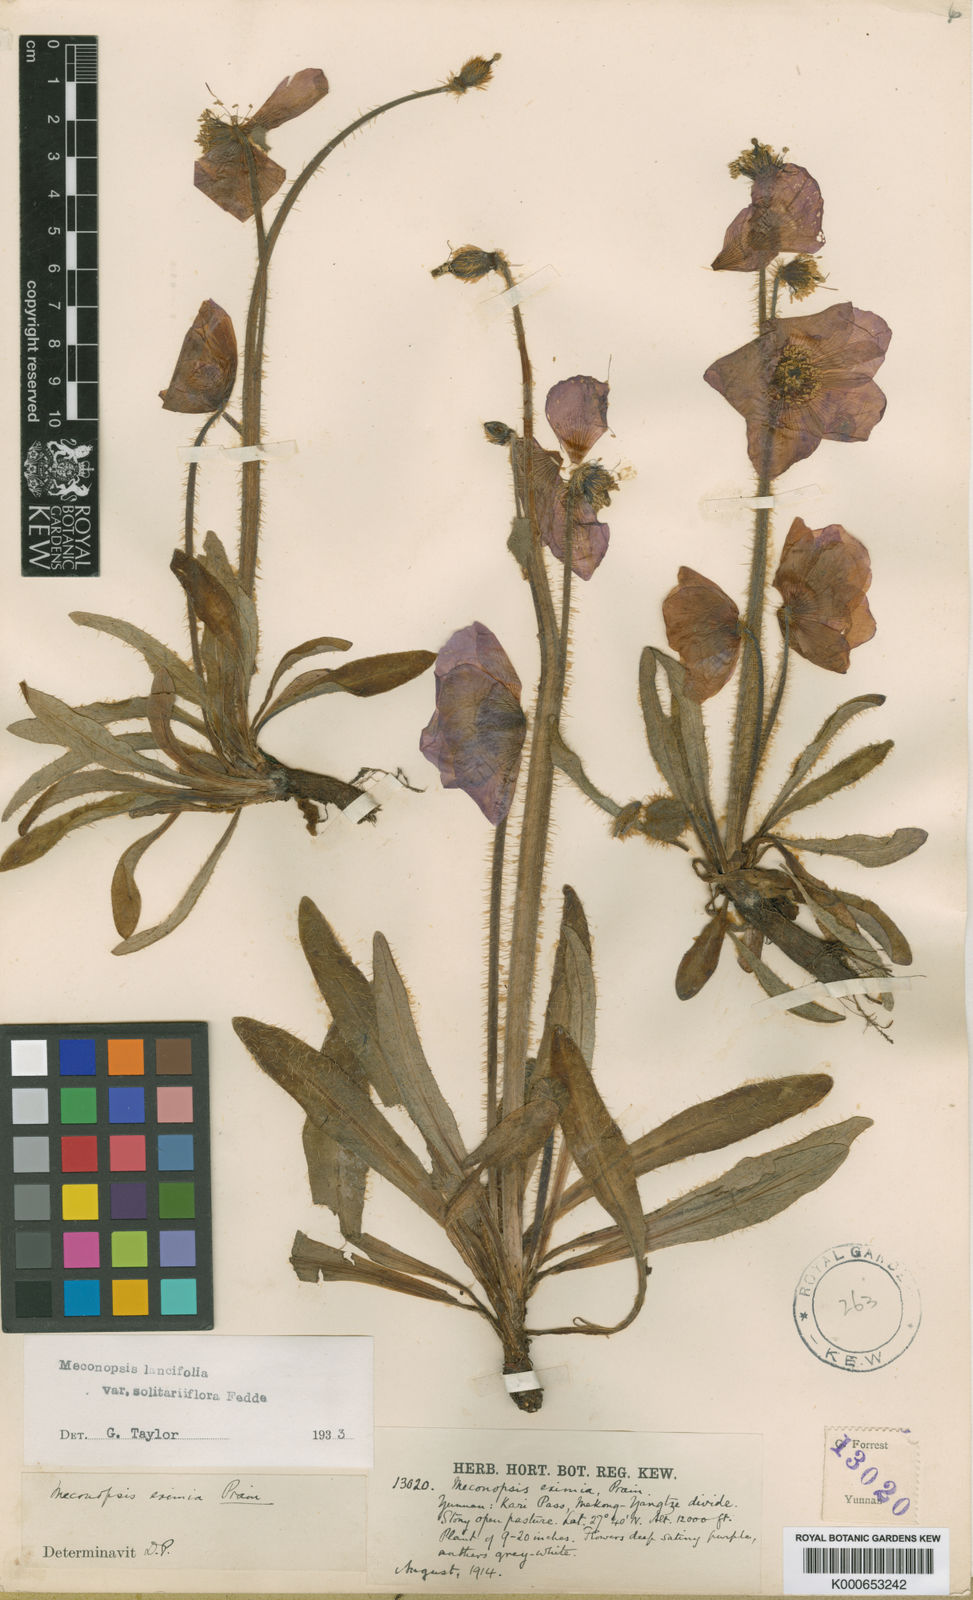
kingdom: Plantae
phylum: Tracheophyta
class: Magnoliopsida
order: Ranunculales
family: Papaveraceae
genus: Meconopsis
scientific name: Meconopsis lancifolia
